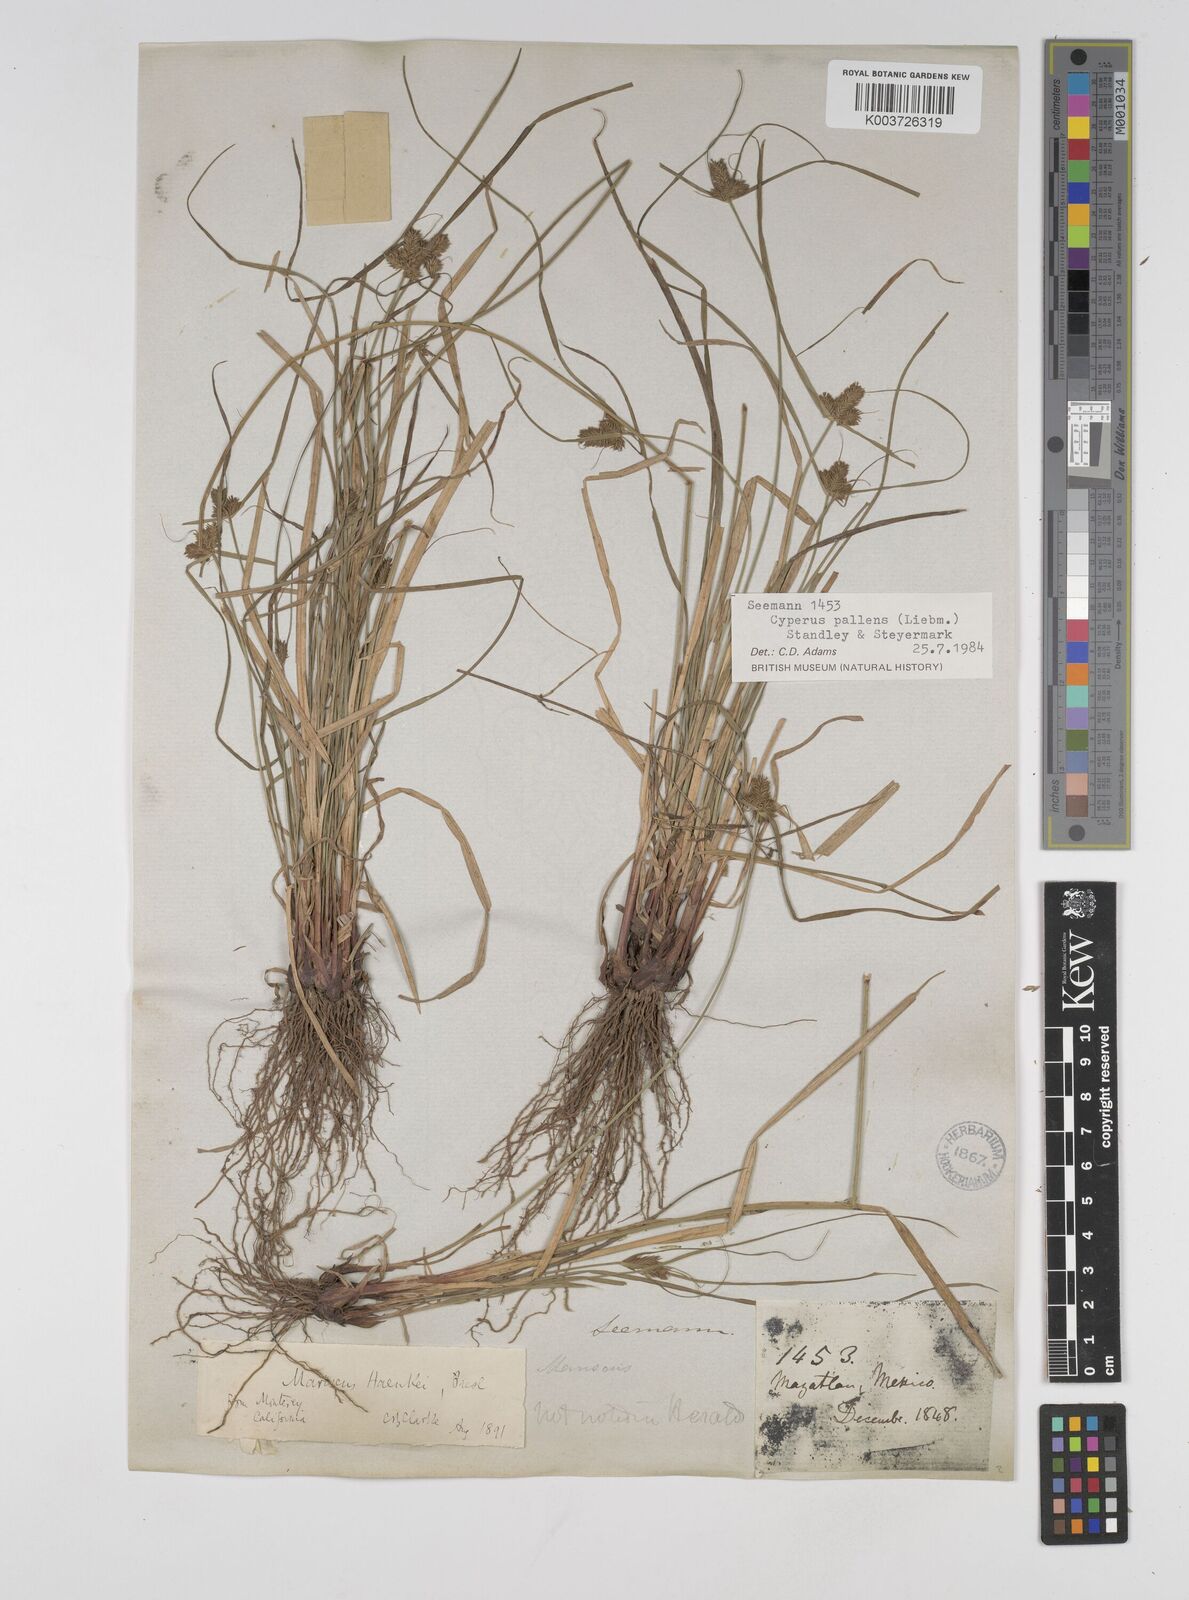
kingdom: Plantae
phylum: Tracheophyta
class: Liliopsida
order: Poales
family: Cyperaceae
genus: Cyperus
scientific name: Cyperus regiomontanus
